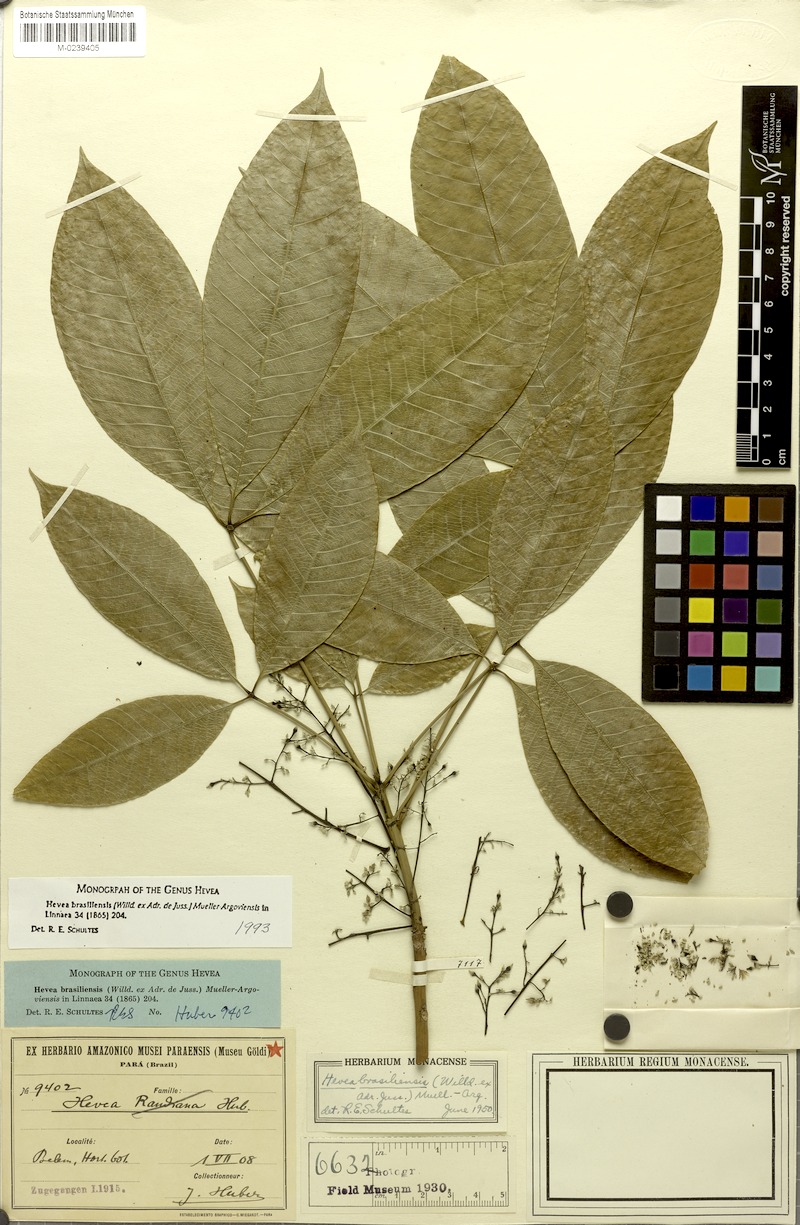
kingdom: Plantae
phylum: Tracheophyta
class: Magnoliopsida
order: Malpighiales
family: Euphorbiaceae
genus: Hevea
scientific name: Hevea brasiliensis
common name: Natural rubber
